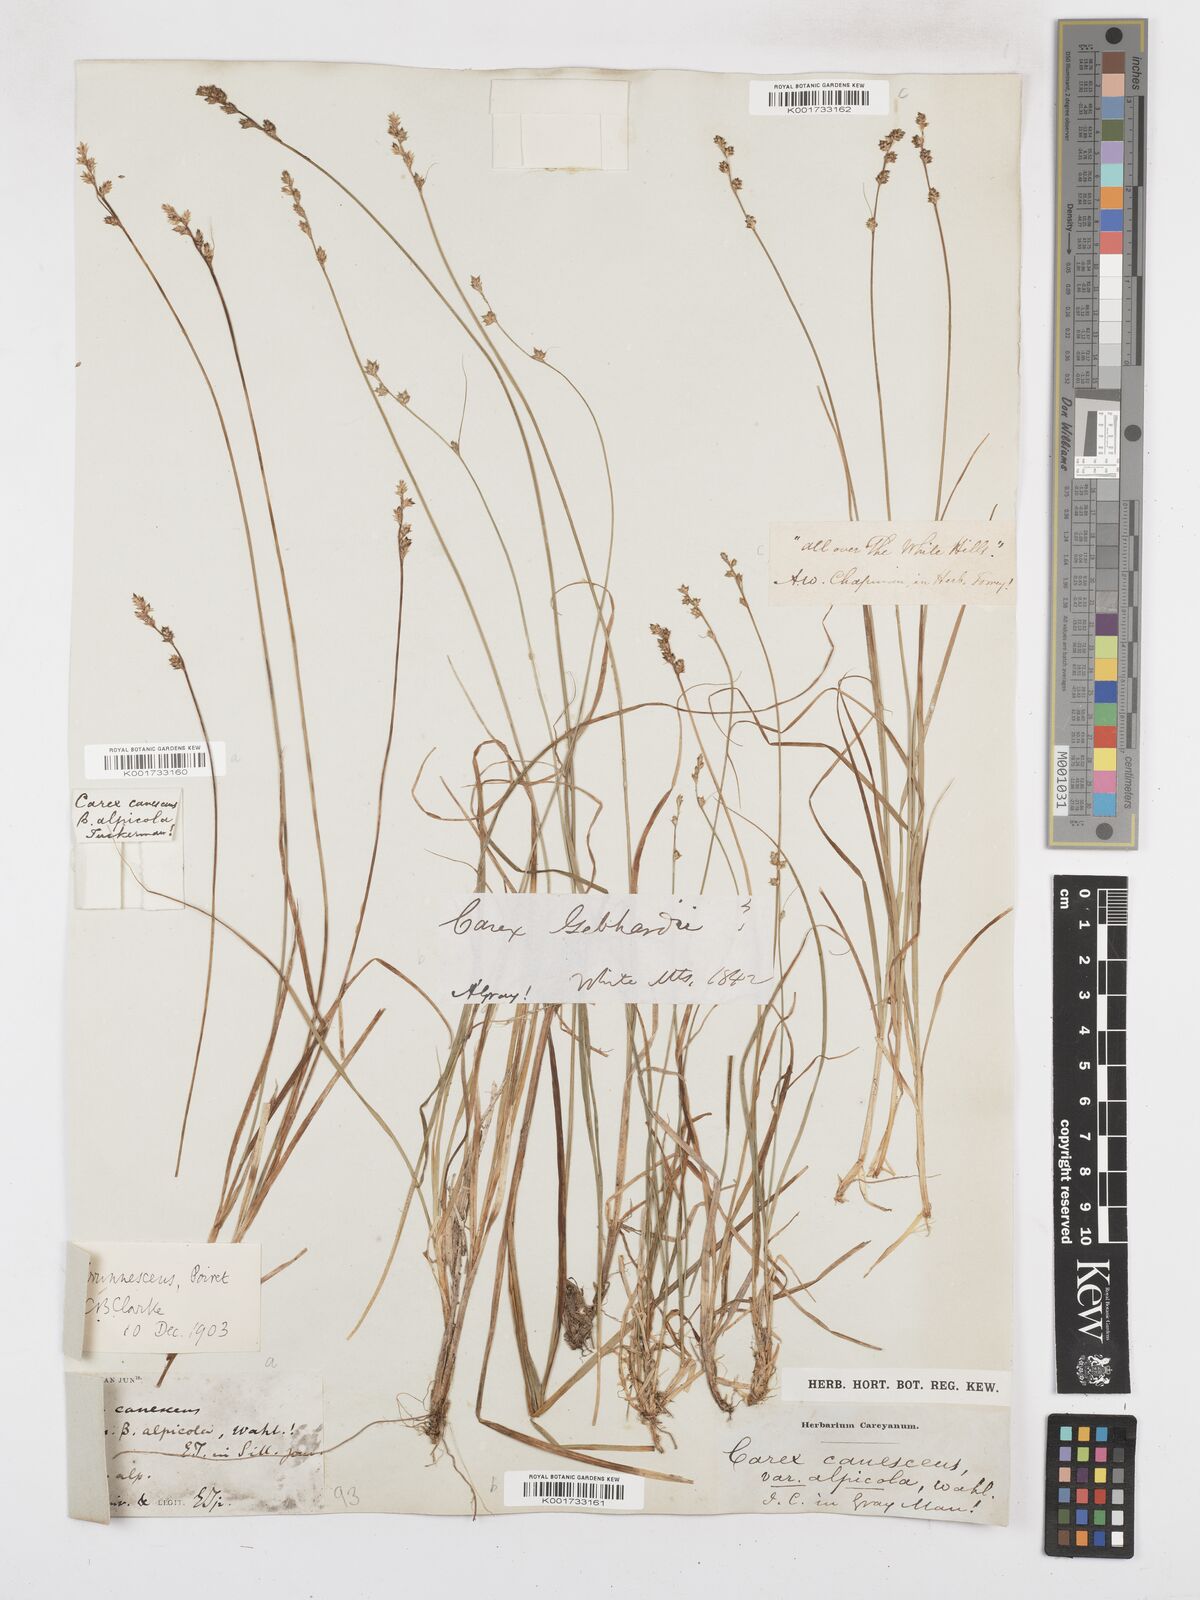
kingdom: Plantae
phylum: Tracheophyta
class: Liliopsida
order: Poales
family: Cyperaceae
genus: Carex
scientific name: Carex brunnescens
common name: Brown sedge
